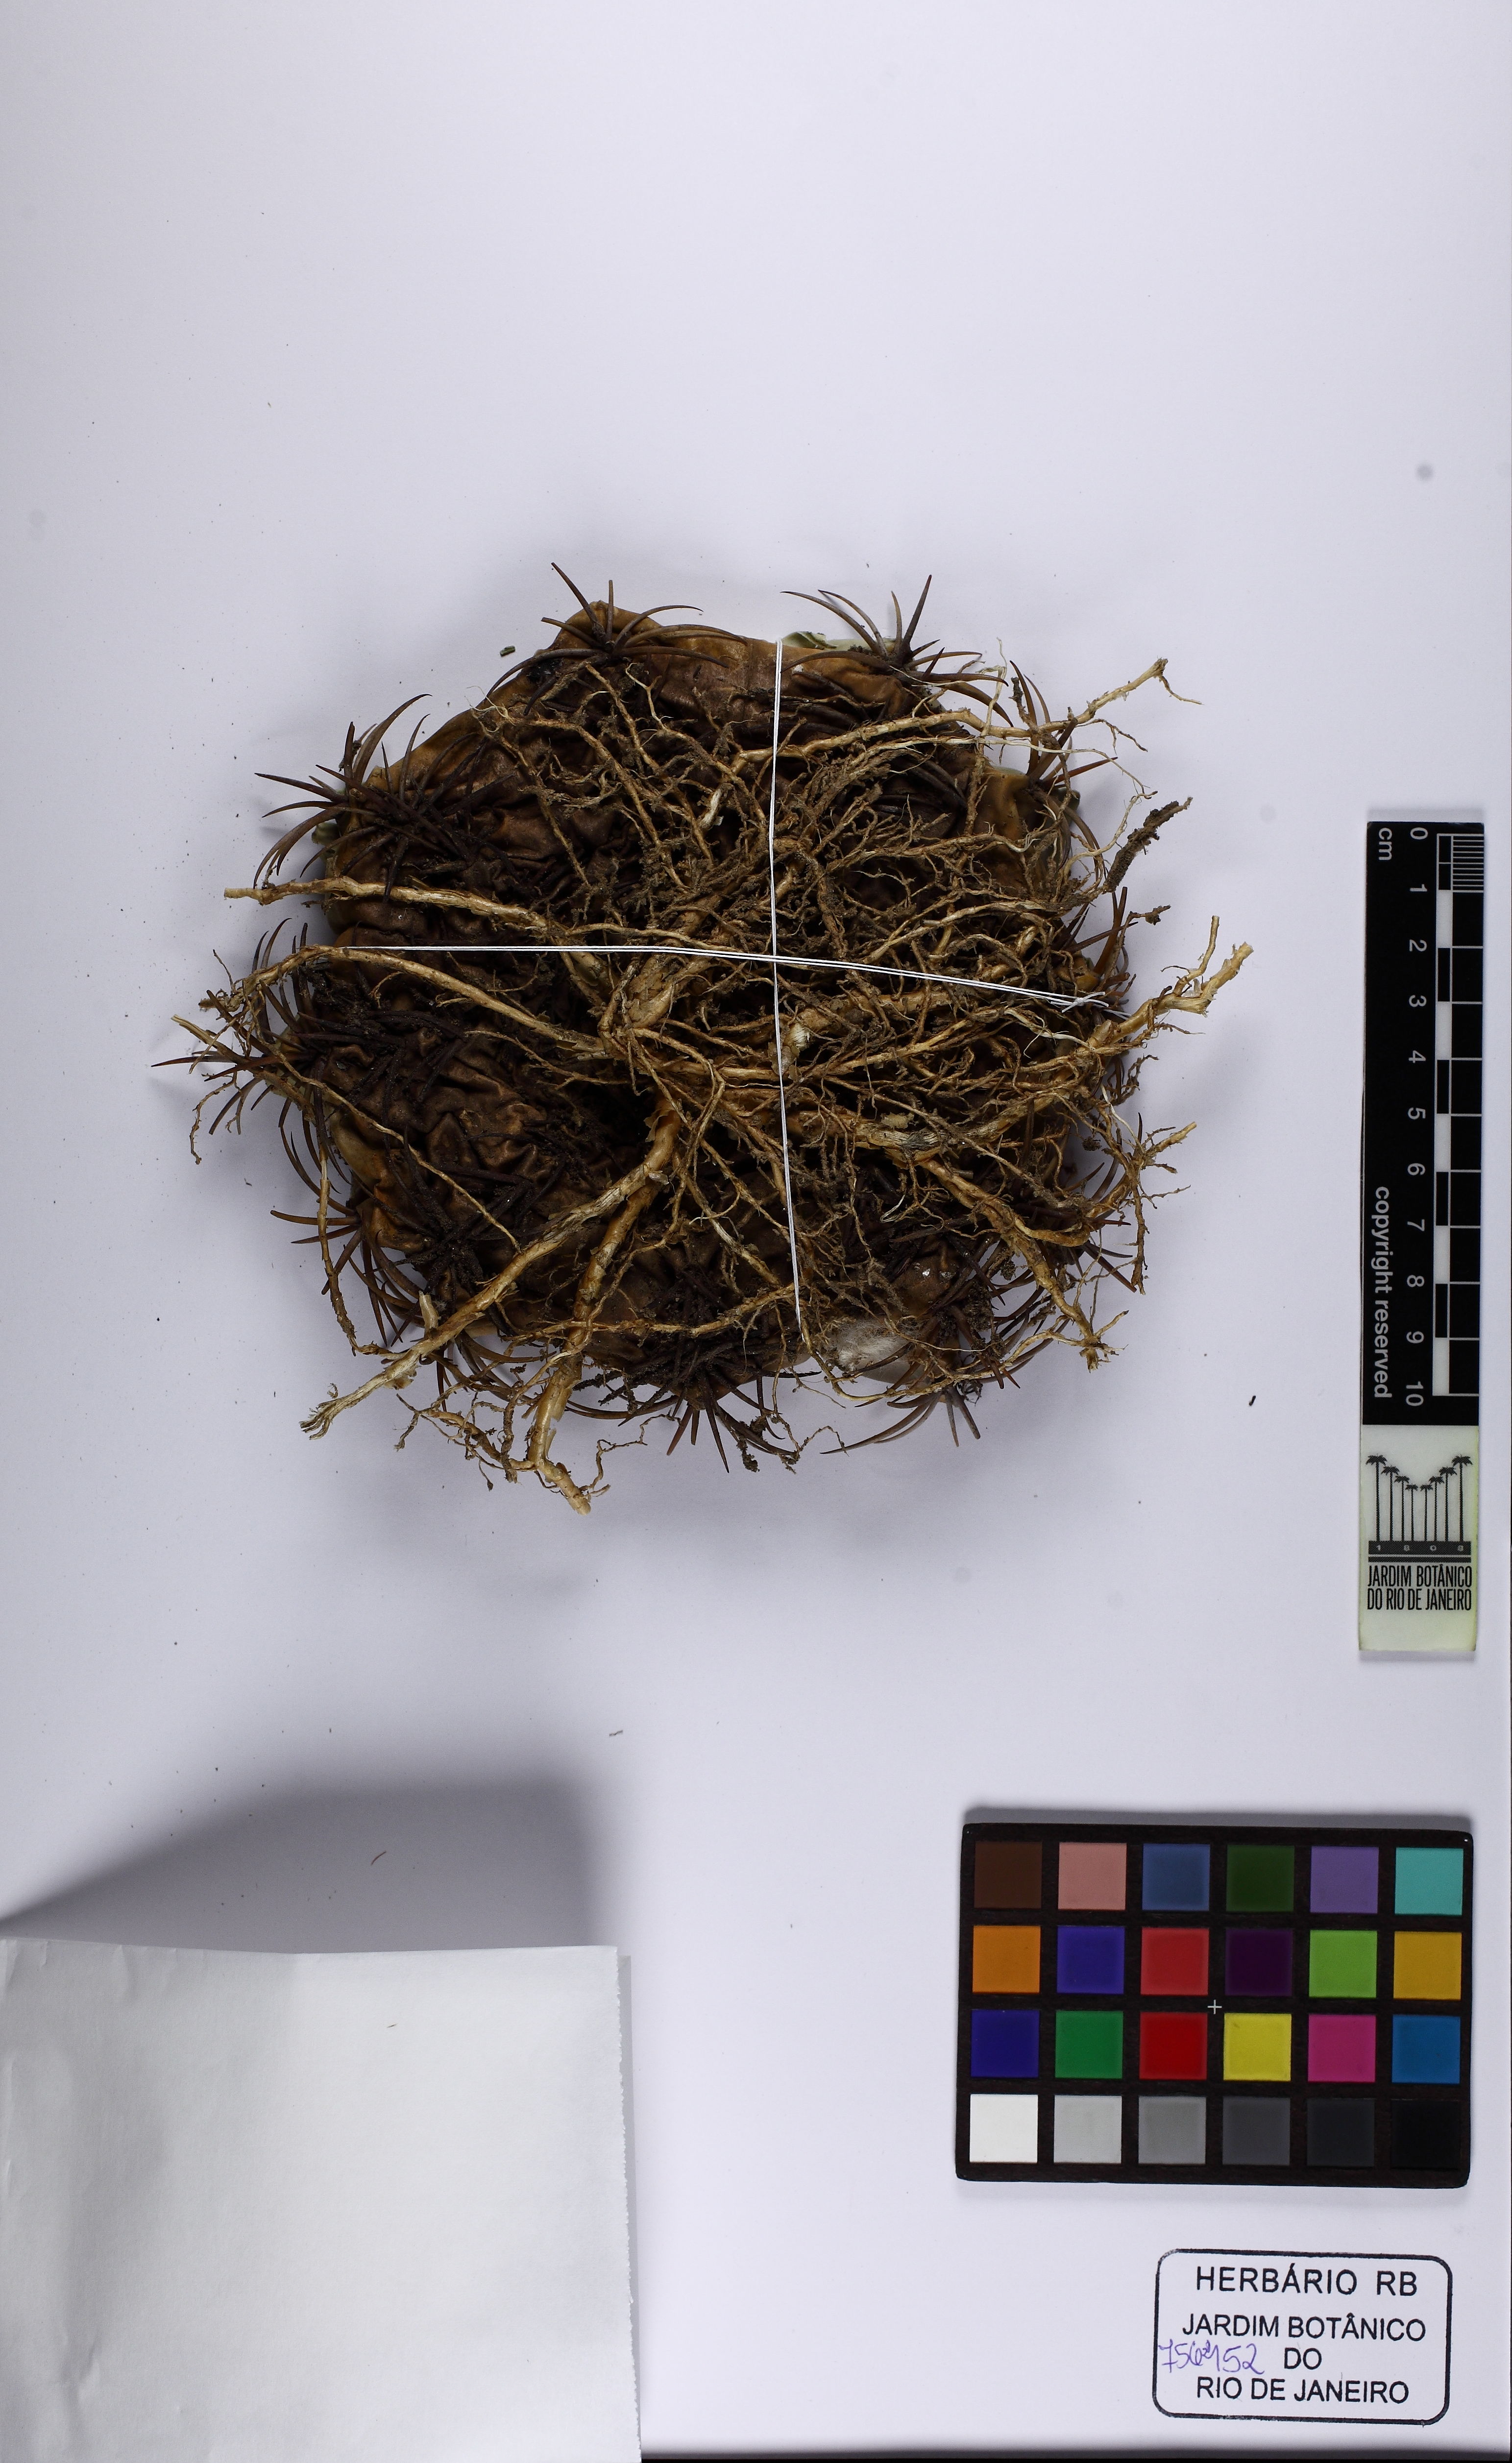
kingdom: Plantae
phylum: Tracheophyta
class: Magnoliopsida
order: Caryophyllales
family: Cactaceae
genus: Melocactus
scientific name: Melocactus zehntneri
